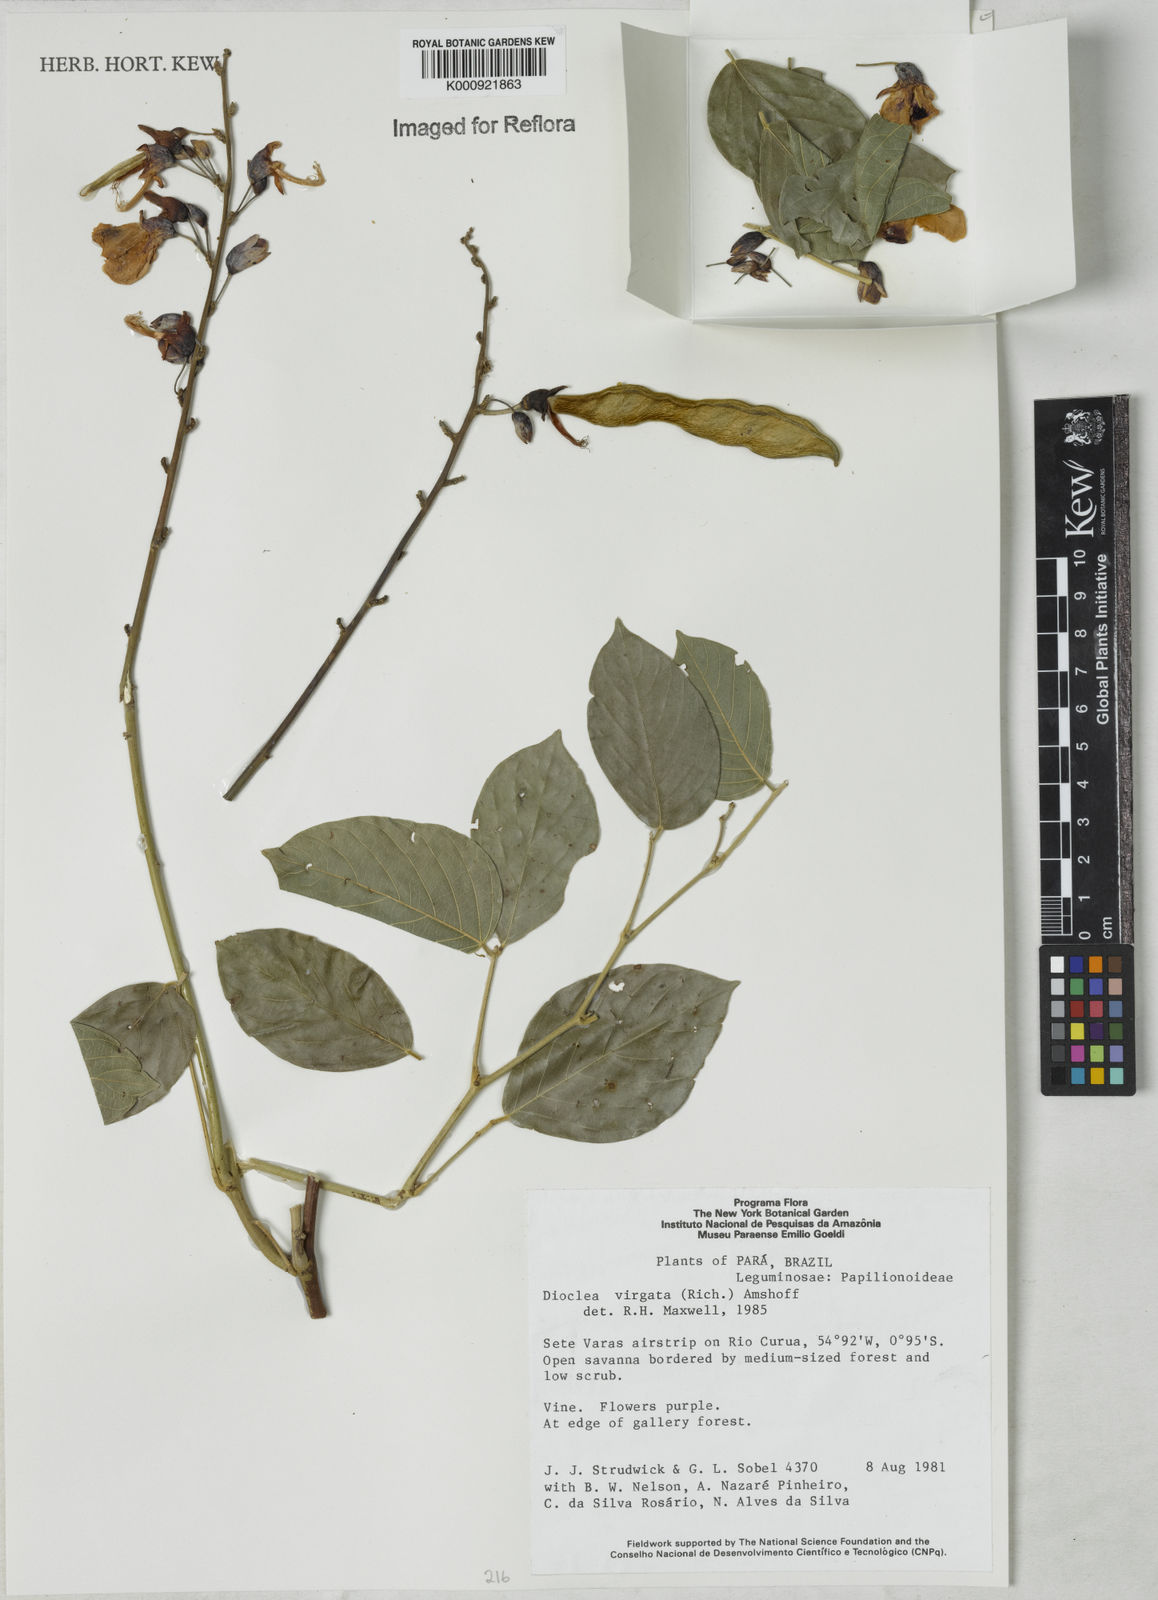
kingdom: Plantae
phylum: Tracheophyta
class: Magnoliopsida
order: Fabales
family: Fabaceae
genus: Dioclea
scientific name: Dioclea virgata
